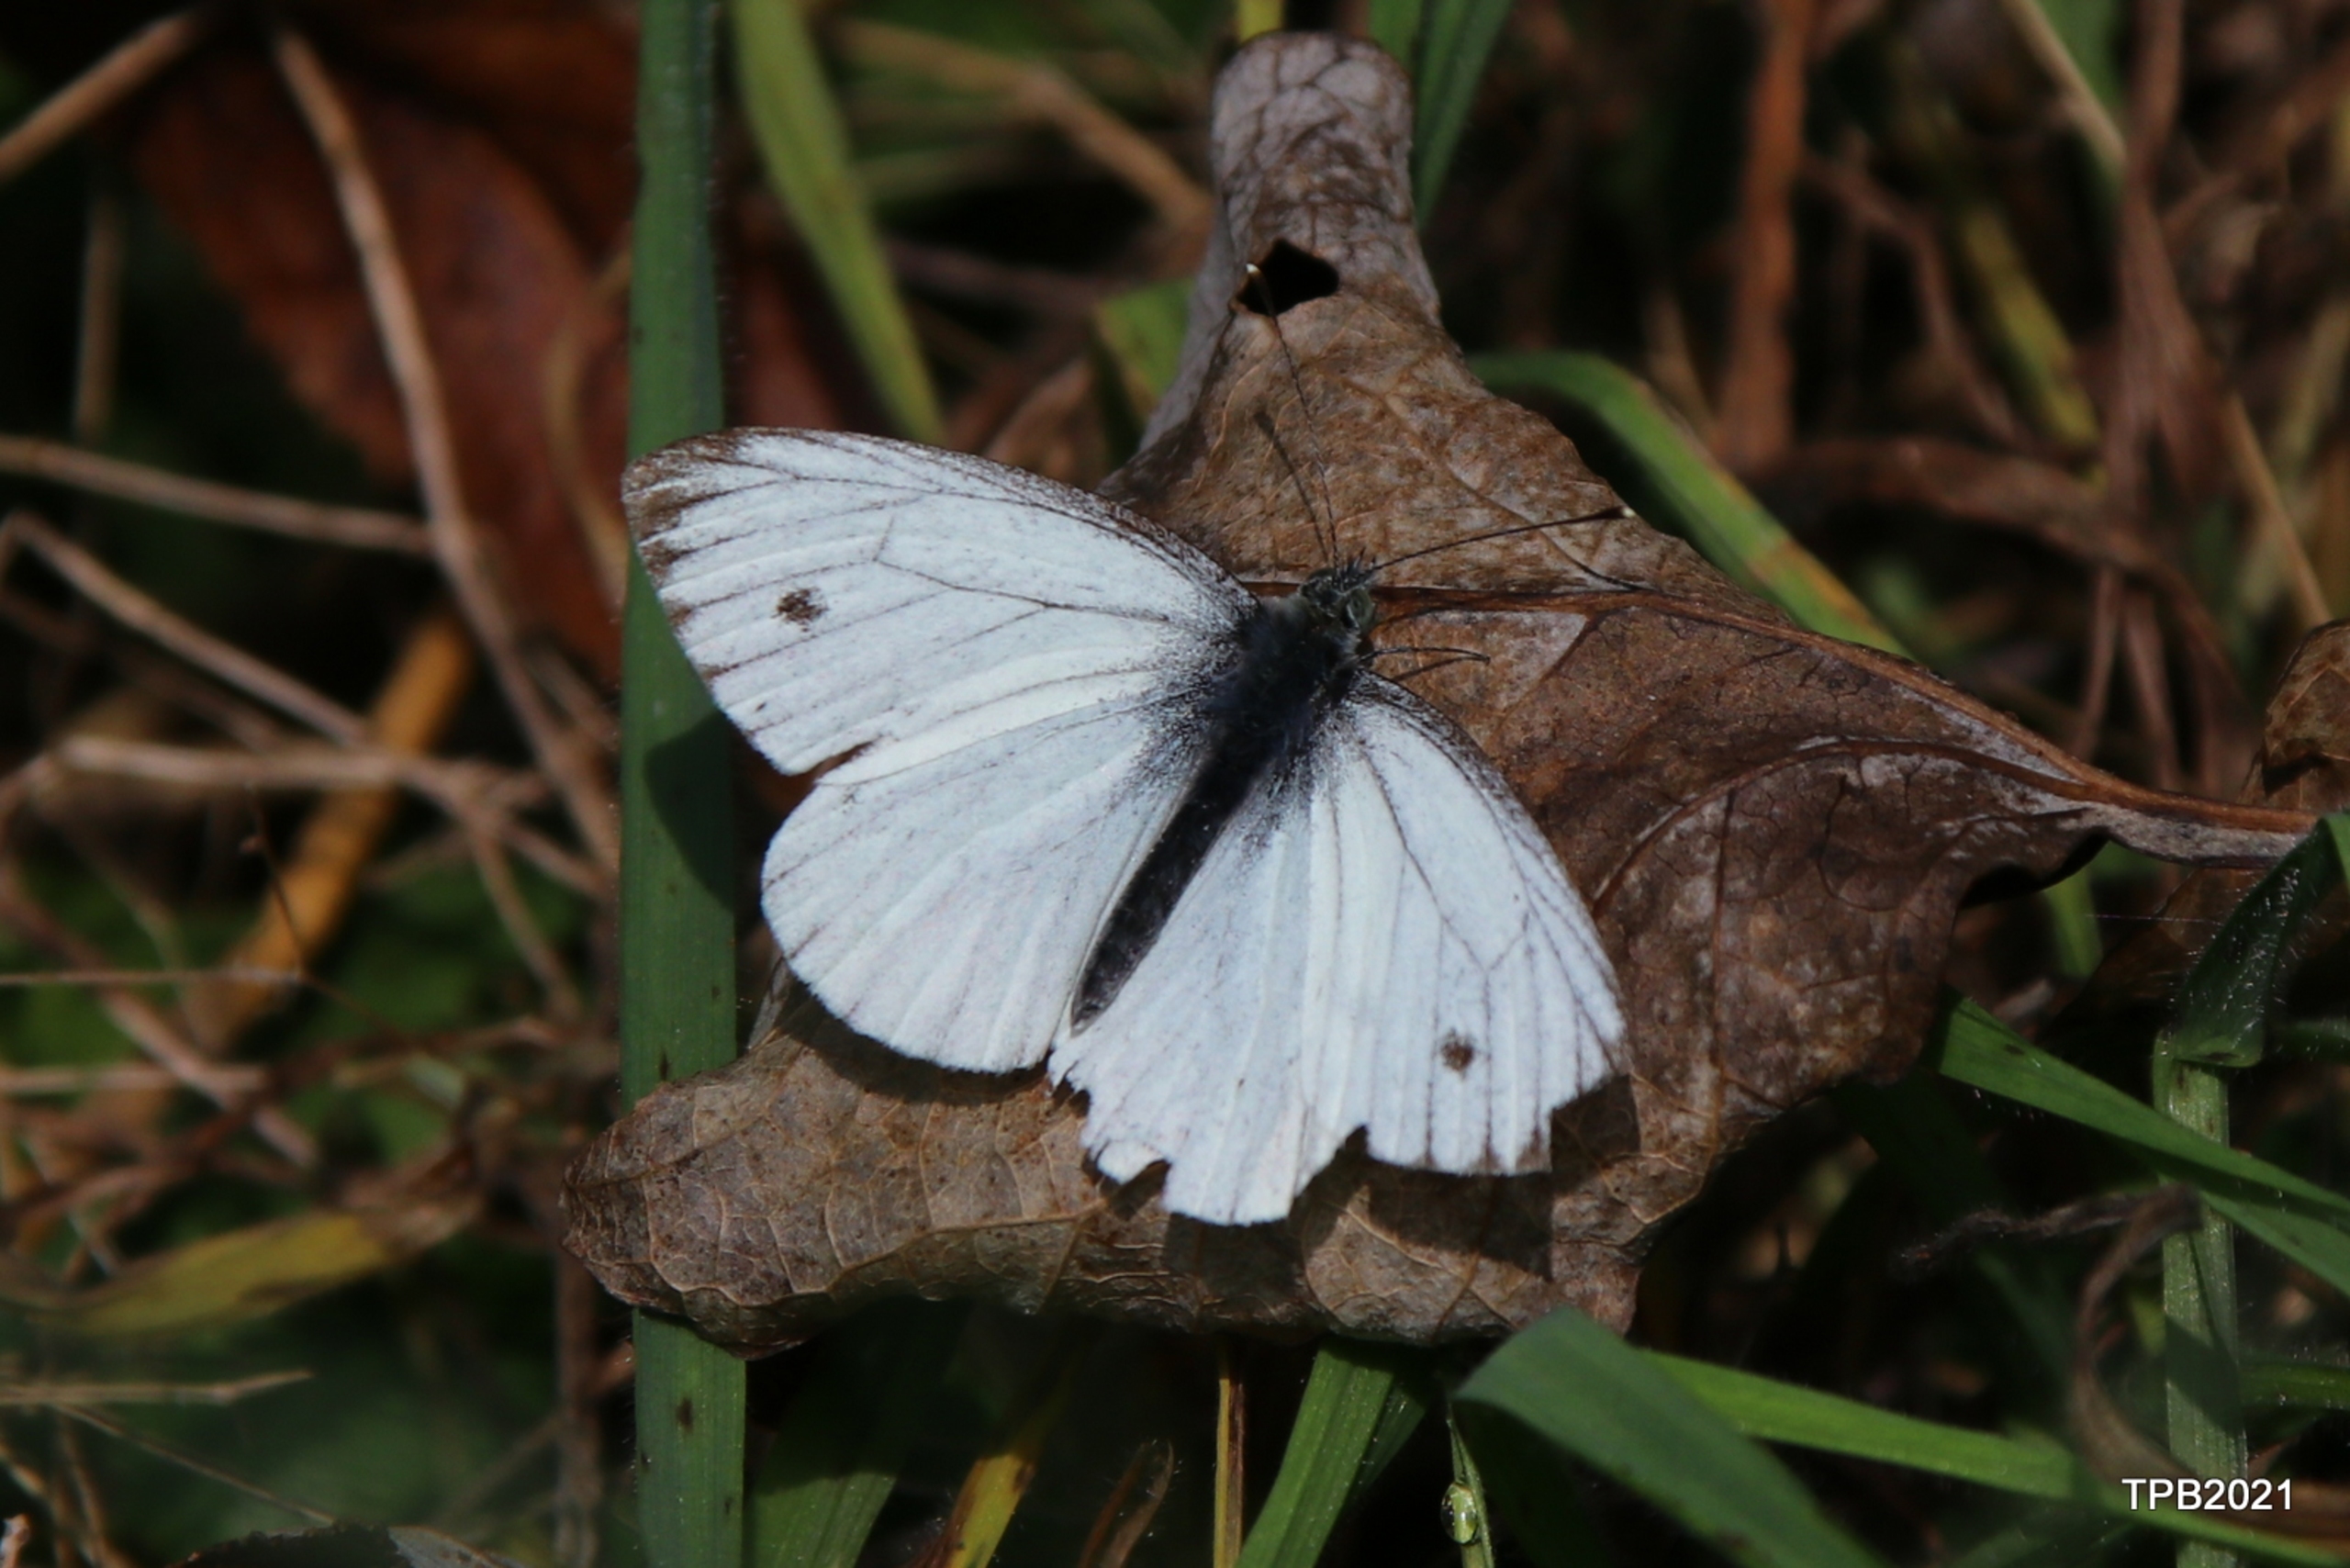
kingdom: Animalia
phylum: Arthropoda
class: Insecta
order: Lepidoptera
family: Pieridae
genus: Pieris
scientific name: Pieris napi
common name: Grønåret kålsommerfugl
